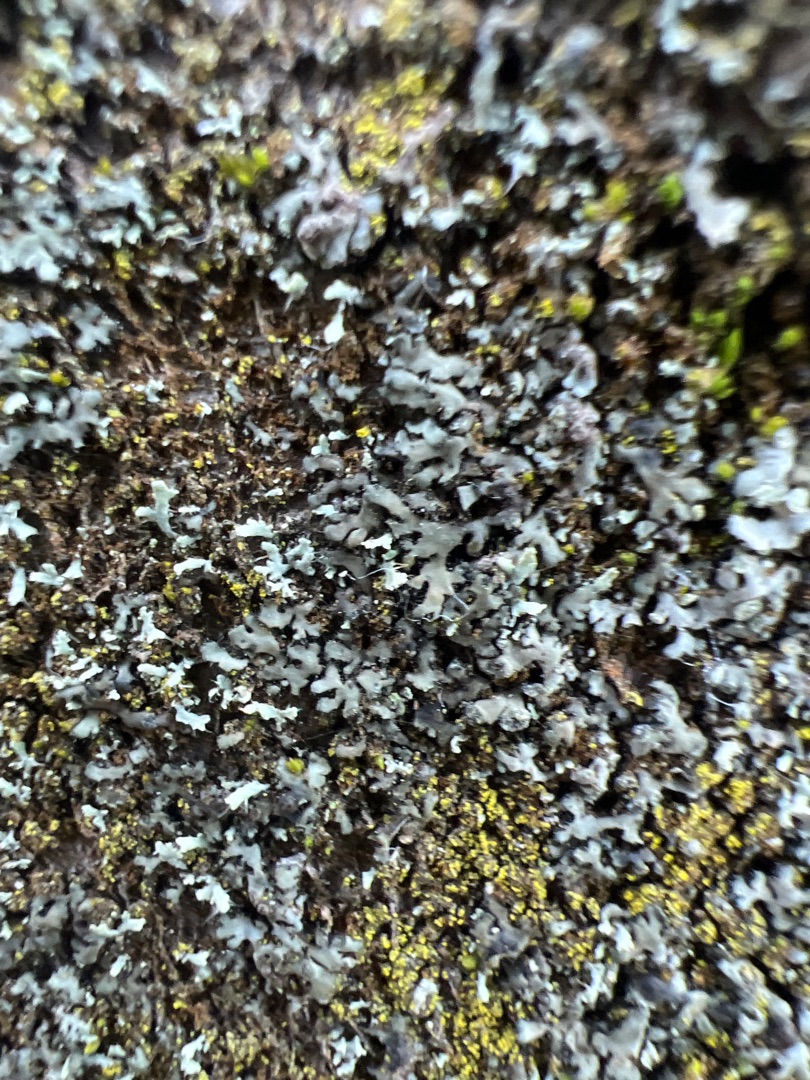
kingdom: Fungi
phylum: Ascomycota
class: Lecanoromycetes
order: Caliciales
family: Physciaceae
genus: Physcia
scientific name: Physcia tenella
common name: Spæd rosetlav
